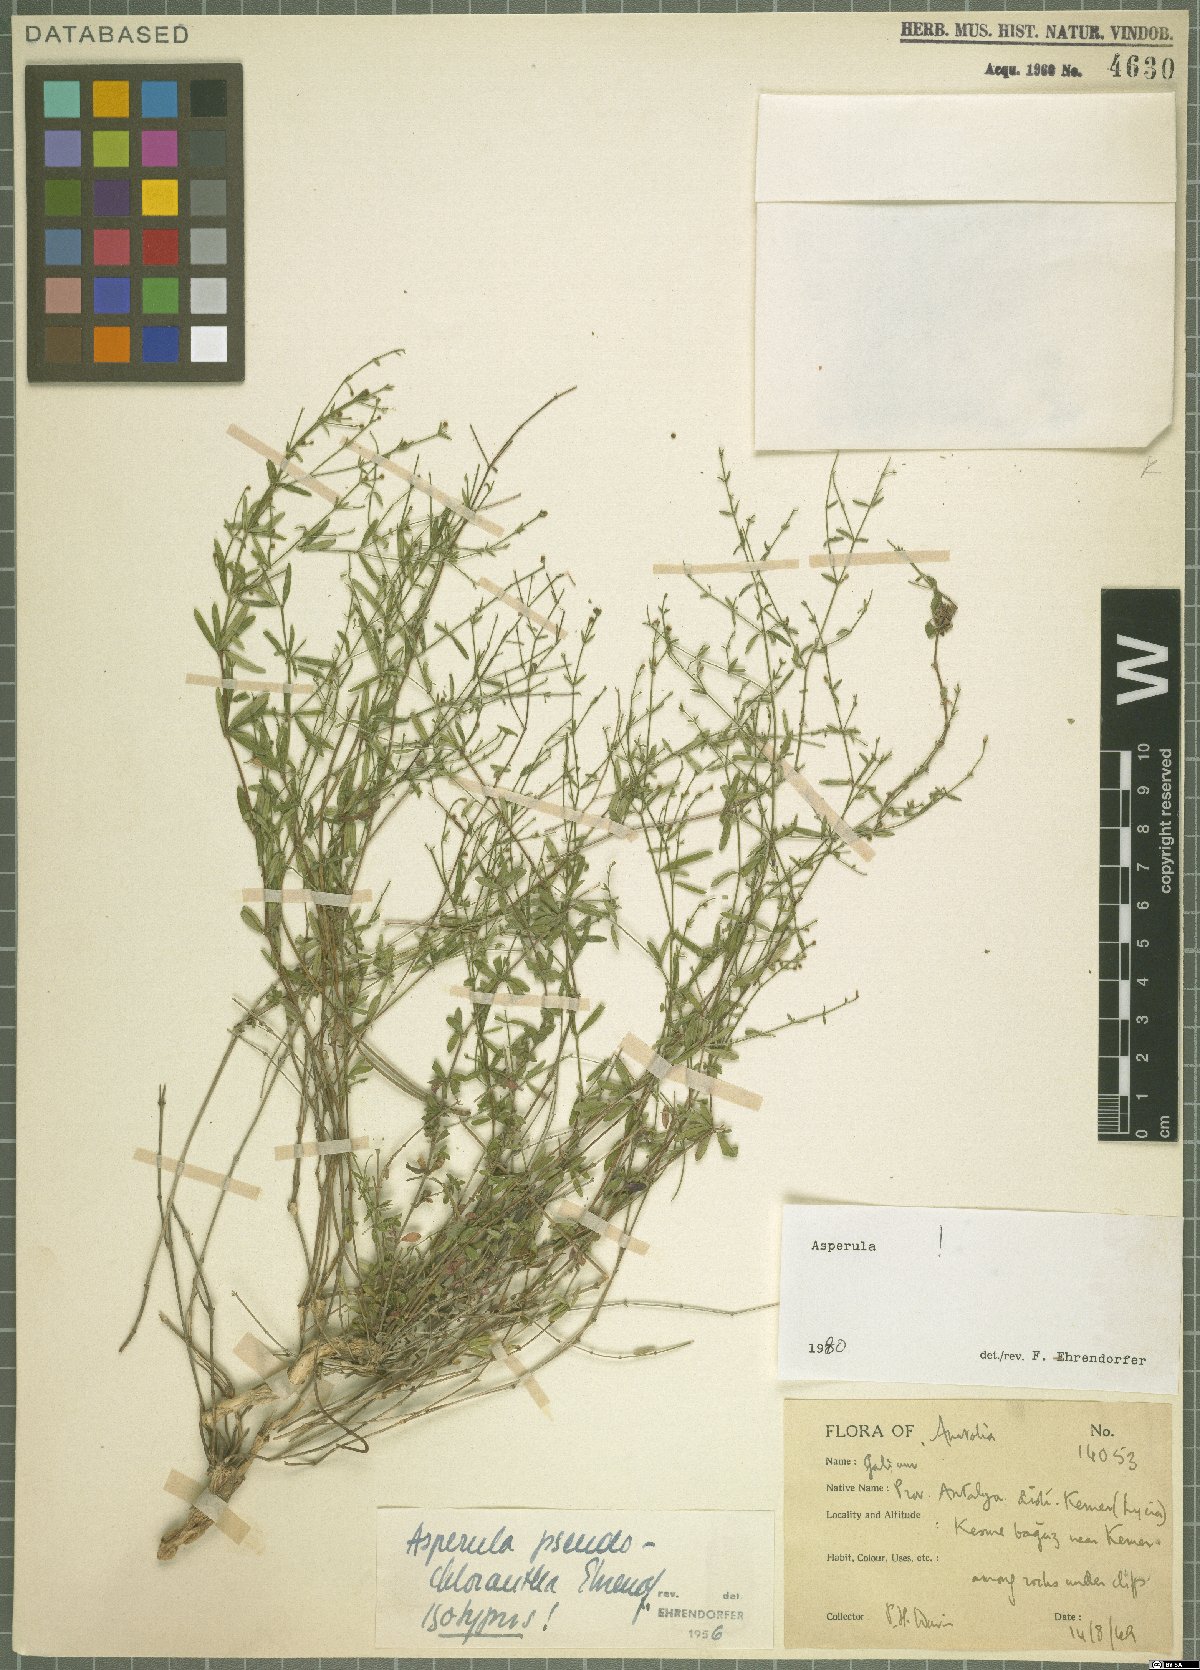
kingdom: Plantae
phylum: Tracheophyta
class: Magnoliopsida
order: Gentianales
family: Rubiaceae
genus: Thliphthisa
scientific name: Thliphthisa pseudochlorantha
